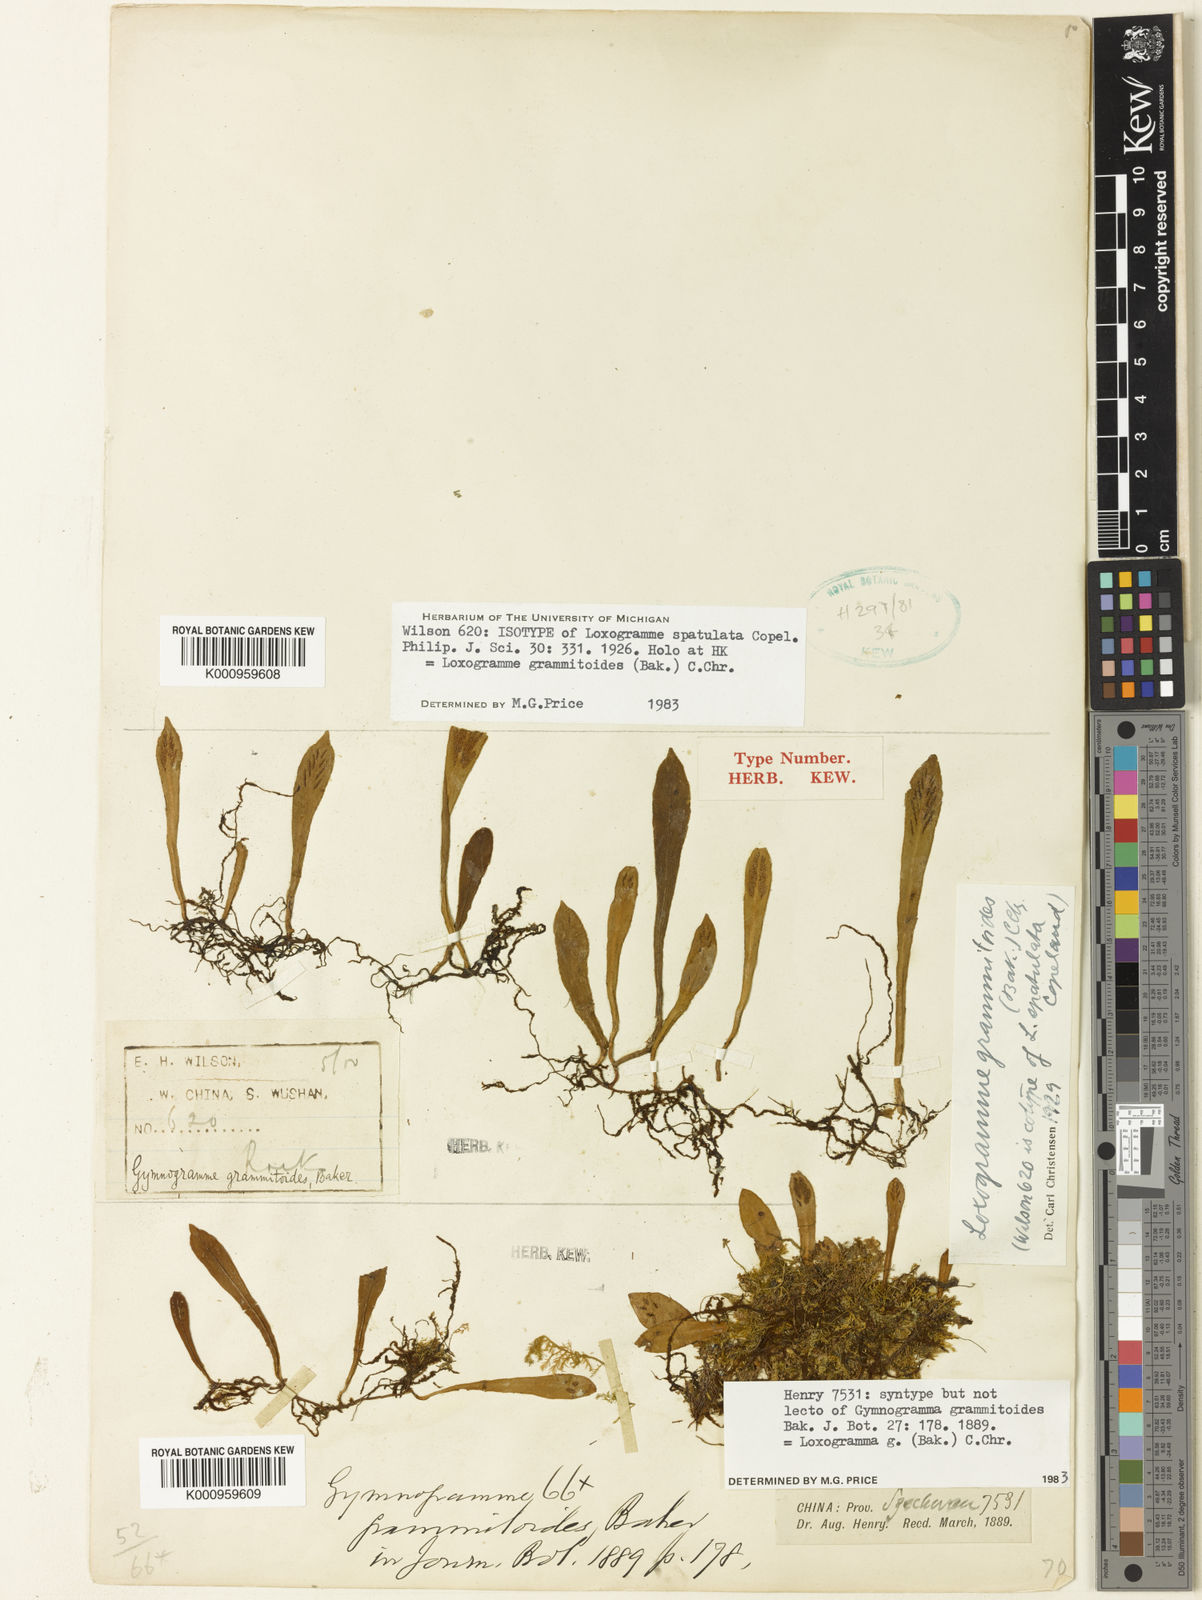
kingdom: Plantae
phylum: Tracheophyta
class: Polypodiopsida
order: Polypodiales
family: Polypodiaceae
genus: Loxogramme
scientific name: Loxogramme grammitoides
